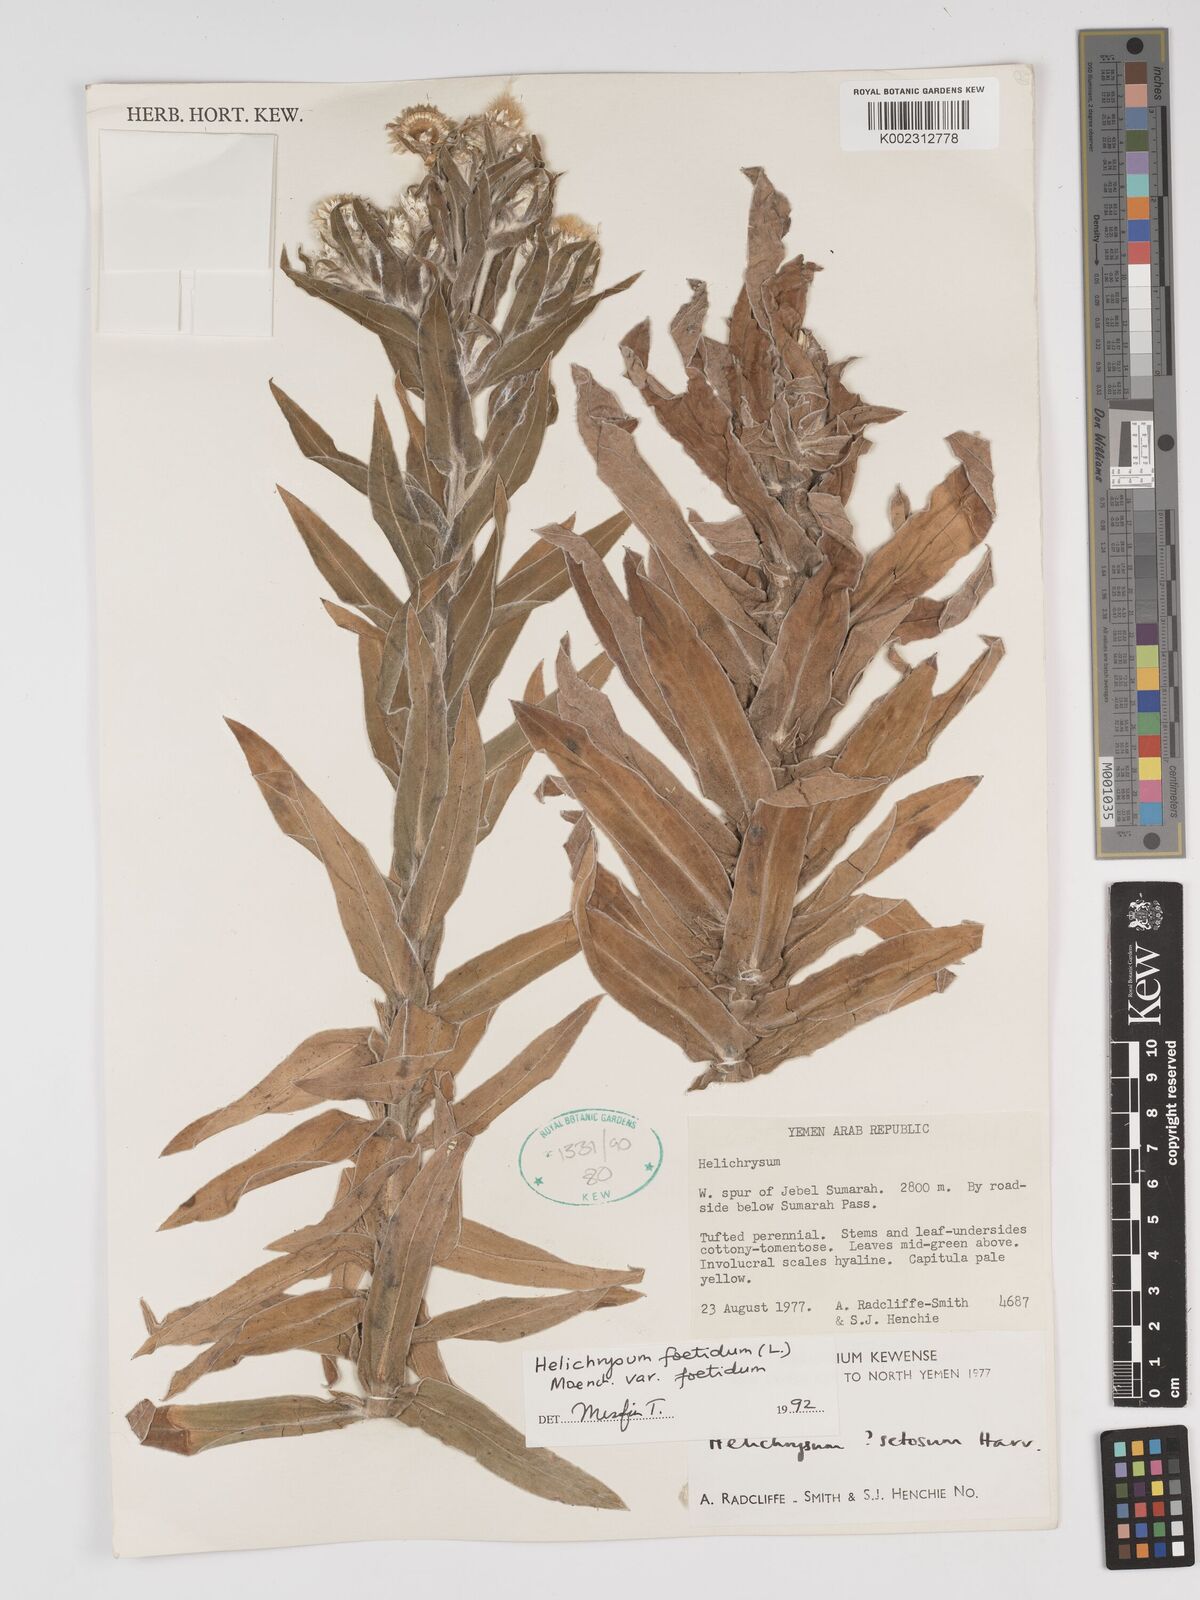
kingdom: Plantae
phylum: Tracheophyta
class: Magnoliopsida
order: Asterales
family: Asteraceae
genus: Helichrysum
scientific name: Helichrysum foetidum
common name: Stinking everlasting
